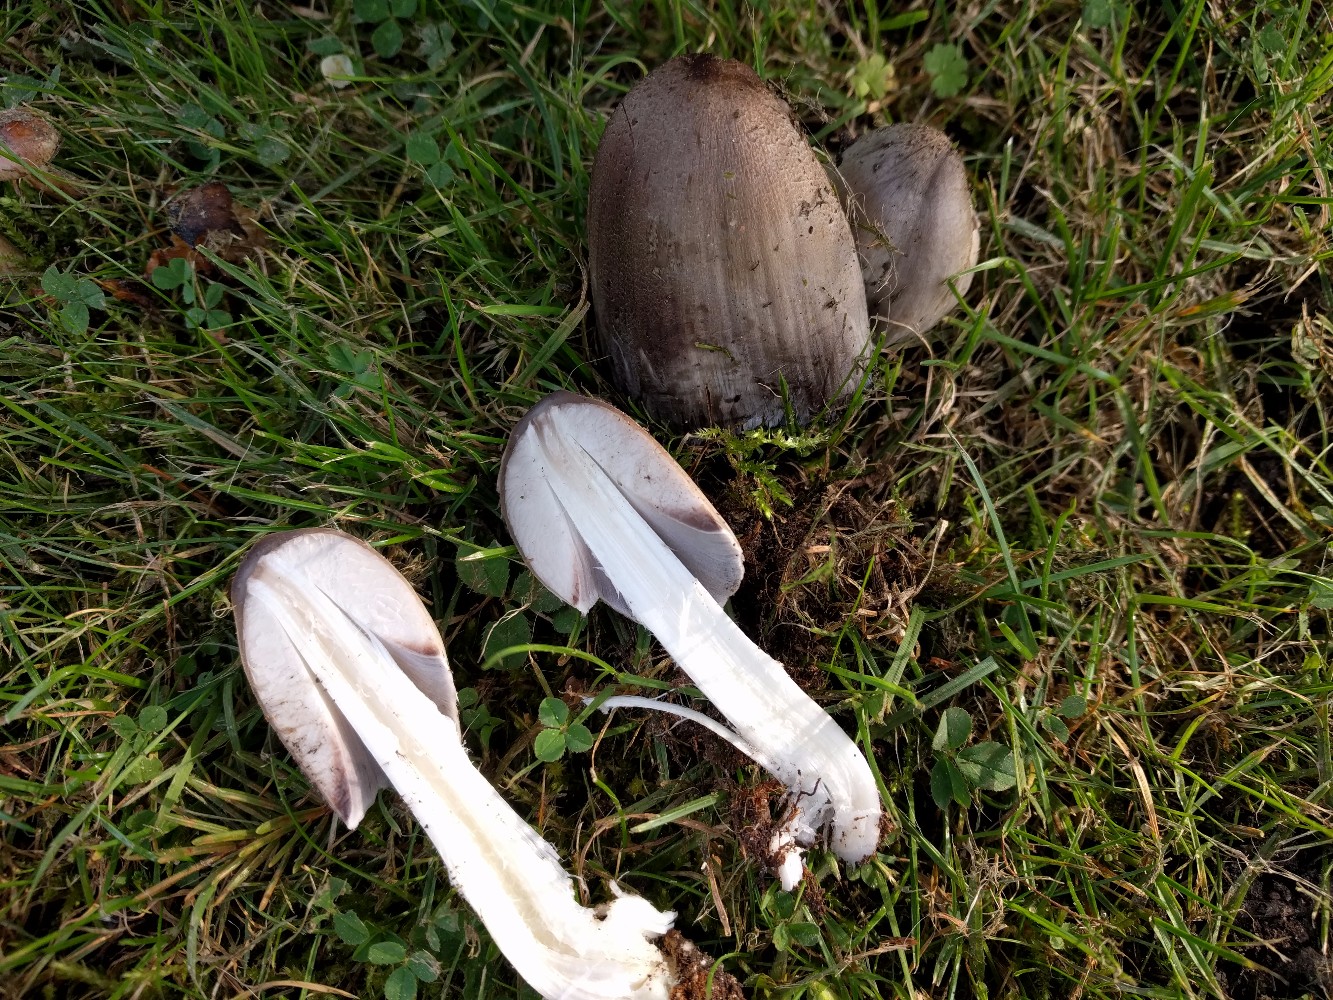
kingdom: Fungi
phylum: Basidiomycota
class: Agaricomycetes
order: Agaricales
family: Psathyrellaceae
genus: Coprinopsis
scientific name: Coprinopsis atramentaria
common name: almindelig blækhat
